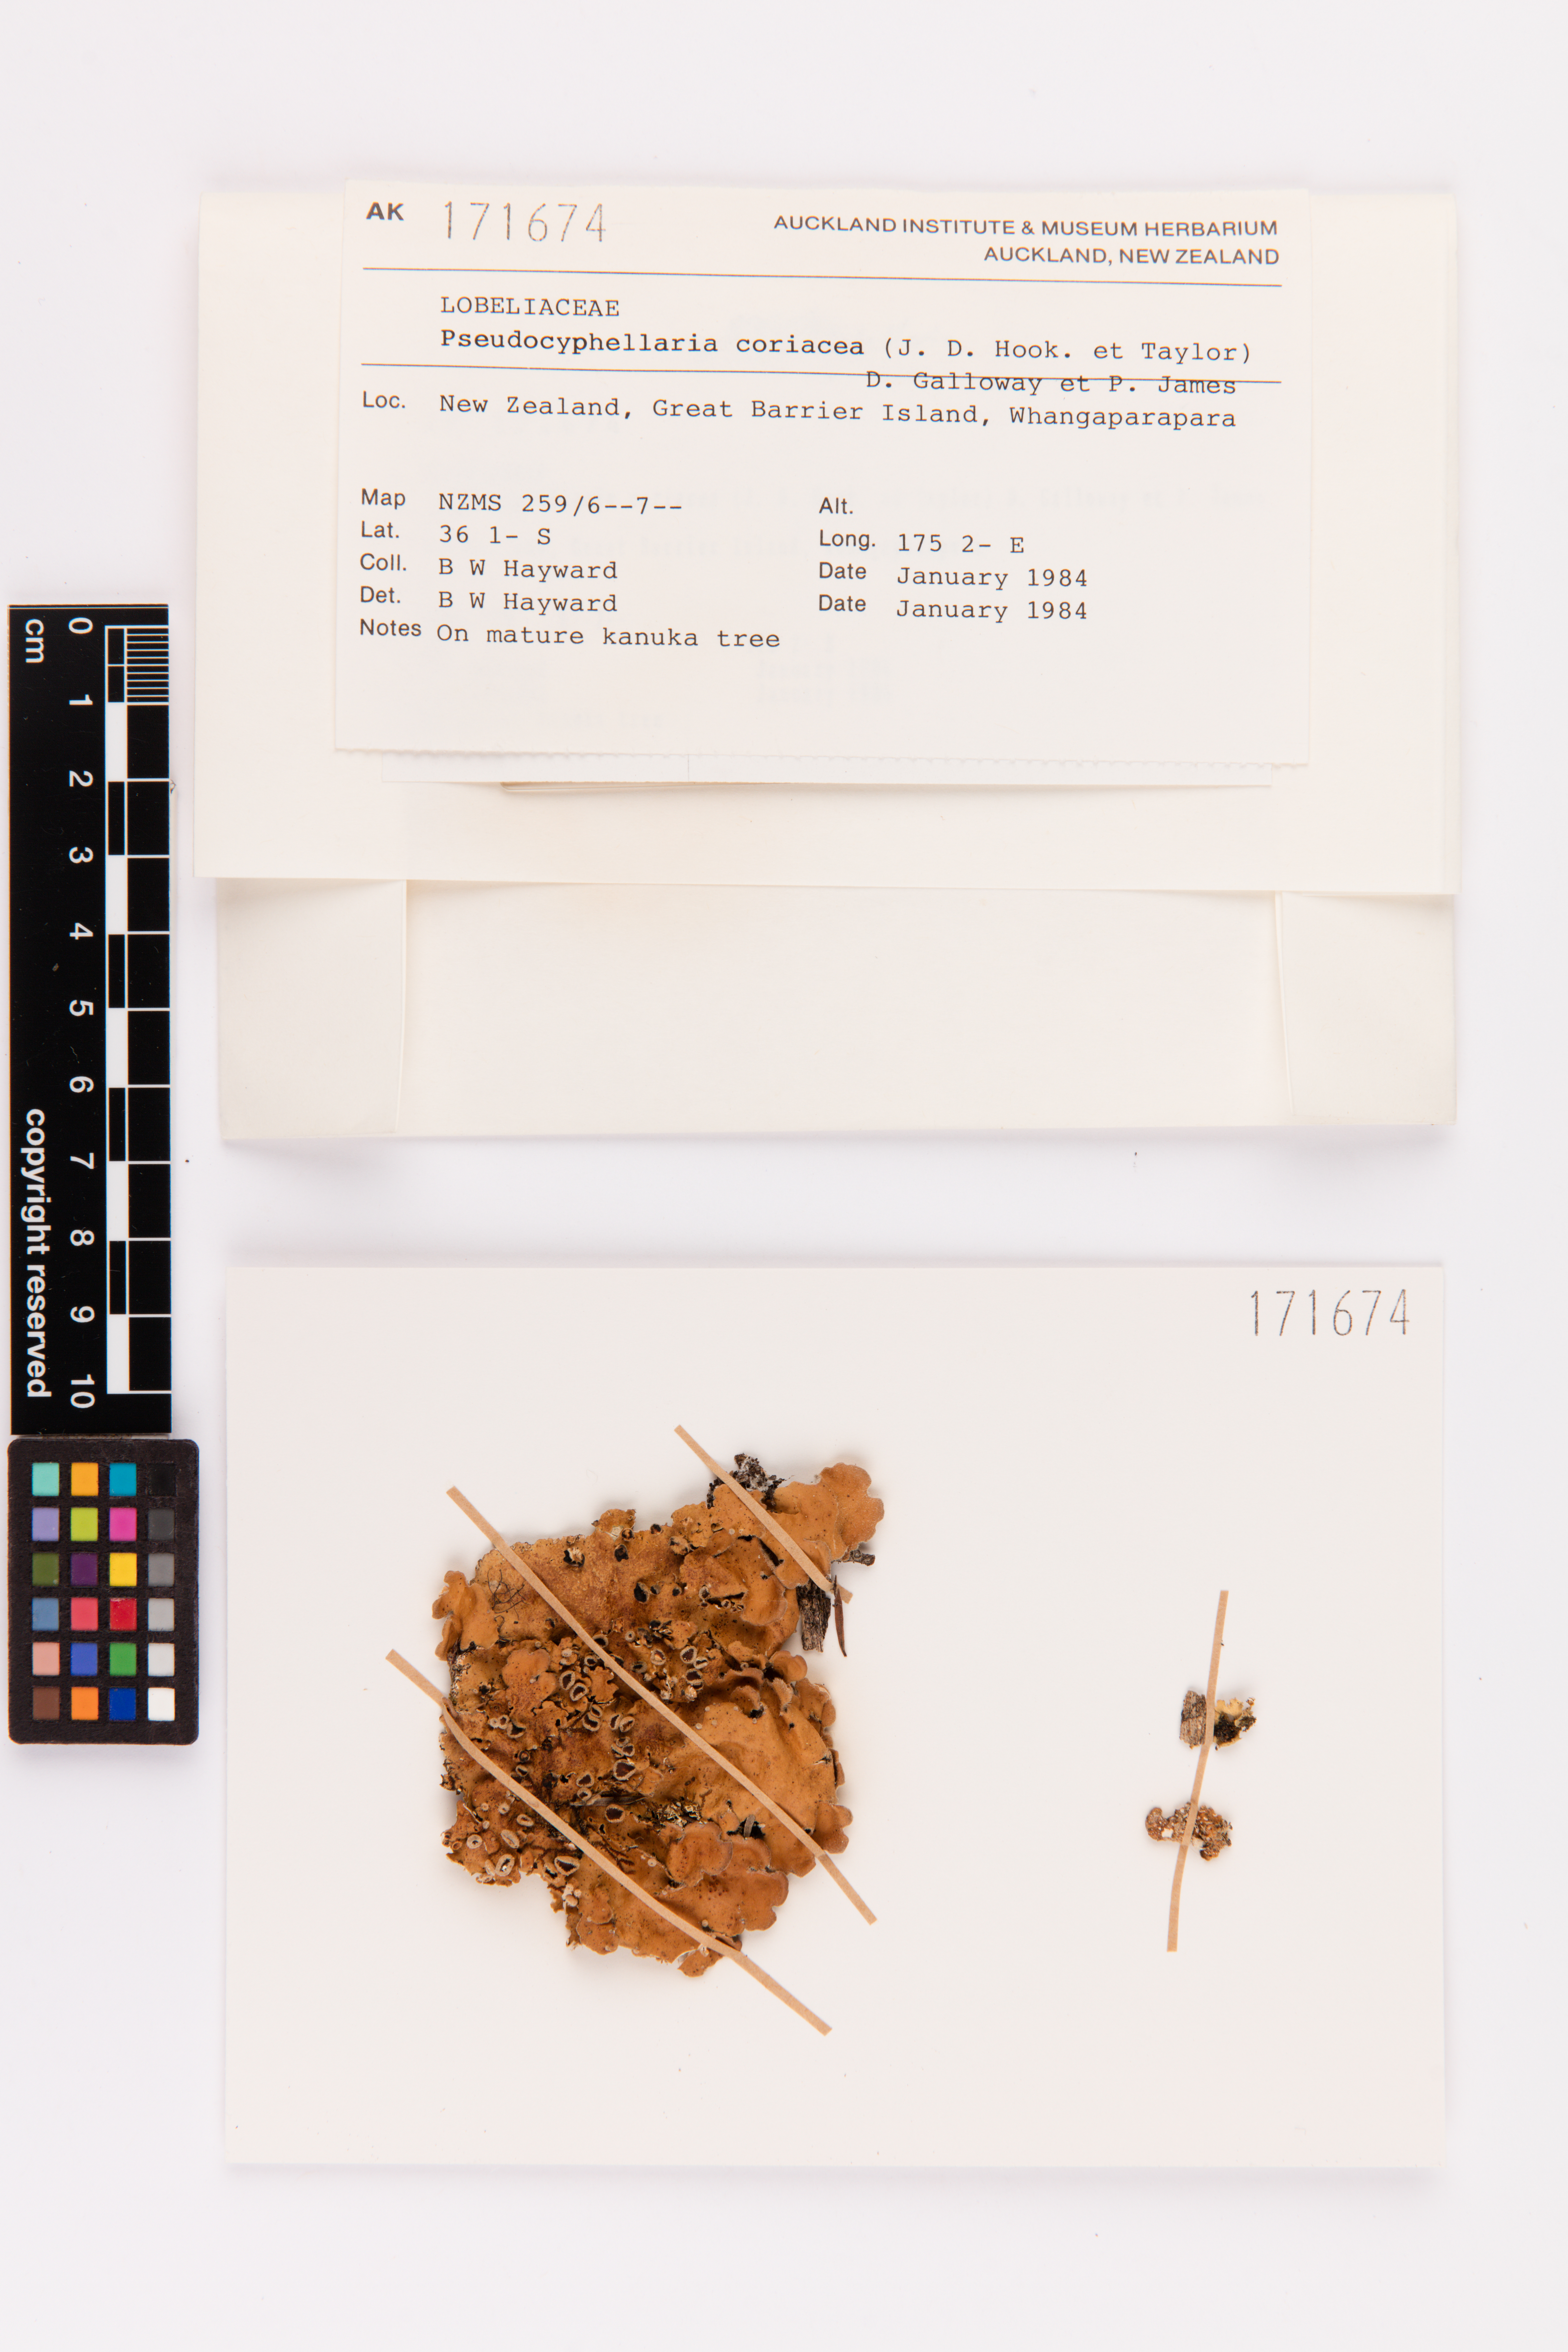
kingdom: Fungi
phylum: Ascomycota
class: Lecanoromycetes
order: Peltigerales
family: Lobariaceae
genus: Pseudocyphellaria
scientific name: Pseudocyphellaria coriacea
